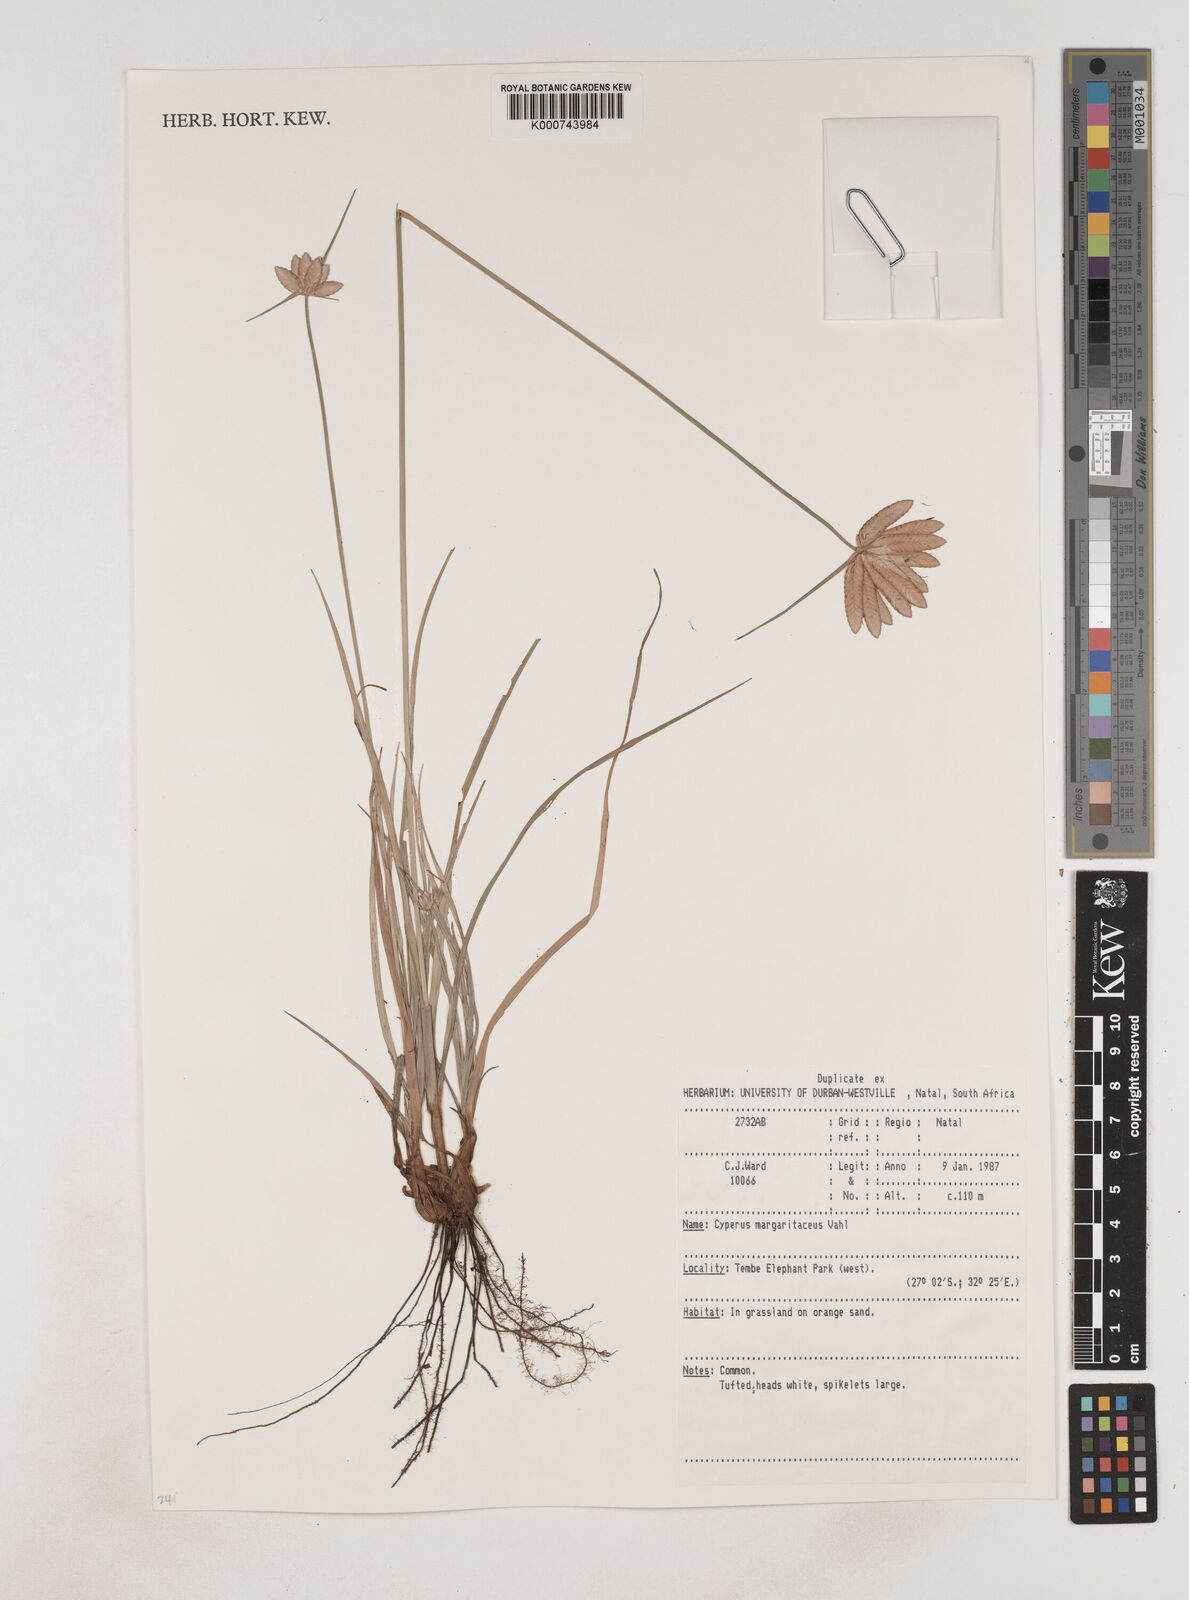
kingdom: Plantae
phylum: Tracheophyta
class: Liliopsida
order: Poales
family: Cyperaceae
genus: Cyperus
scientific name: Cyperus margaritaceus
